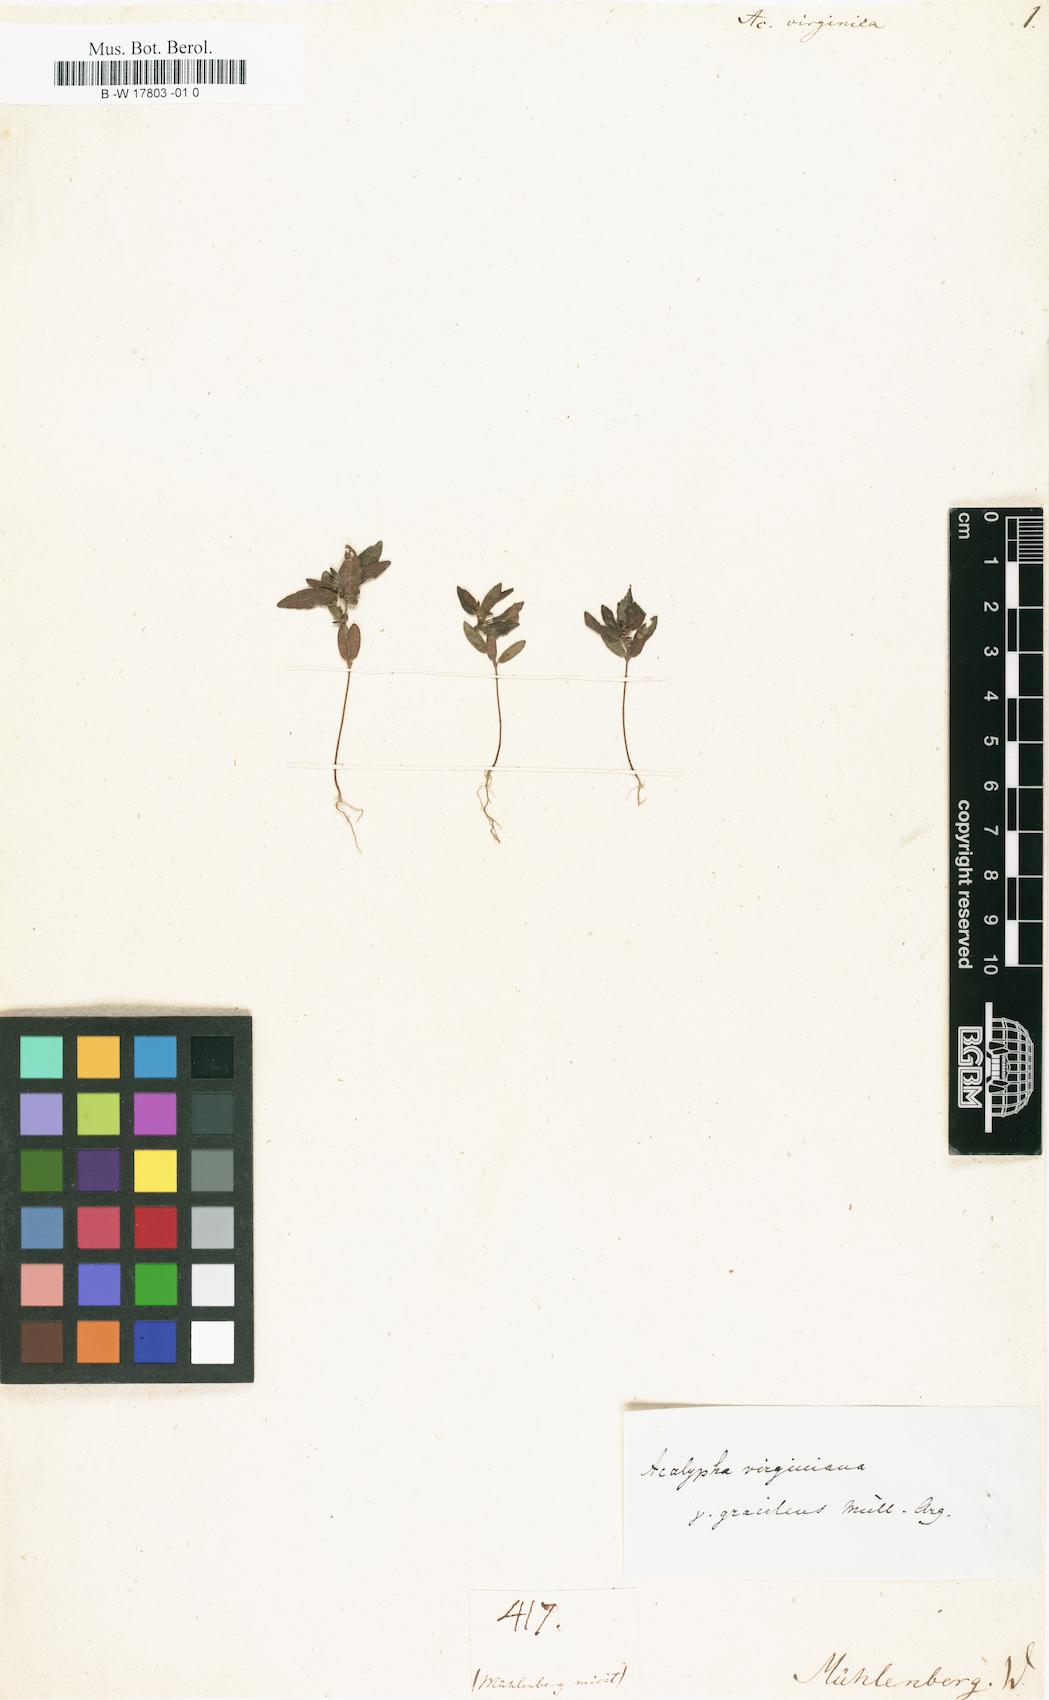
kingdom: Plantae
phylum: Tracheophyta
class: Magnoliopsida
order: Malpighiales
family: Euphorbiaceae
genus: Acalypha
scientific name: Acalypha virginica
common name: Virginia copperleaf
